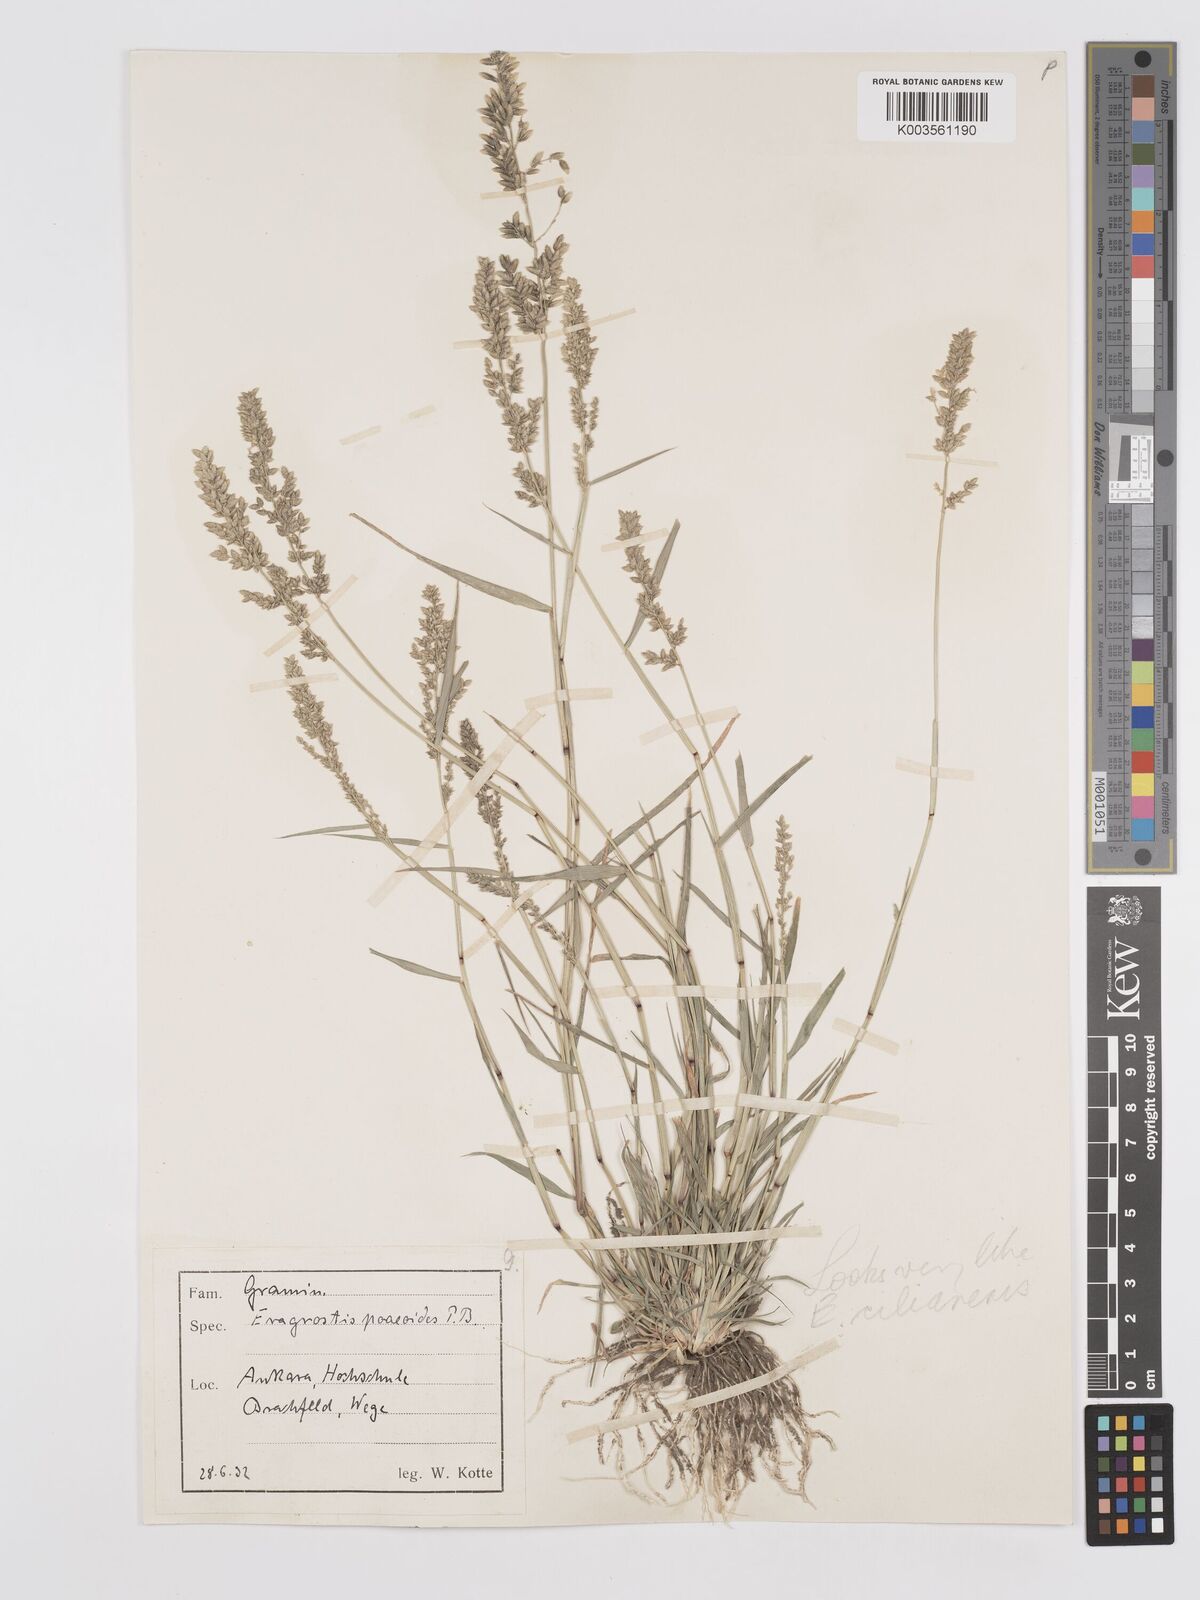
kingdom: Plantae
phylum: Tracheophyta
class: Liliopsida
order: Poales
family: Poaceae
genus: Eragrostis
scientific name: Eragrostis cilianensis
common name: Stinkgrass
